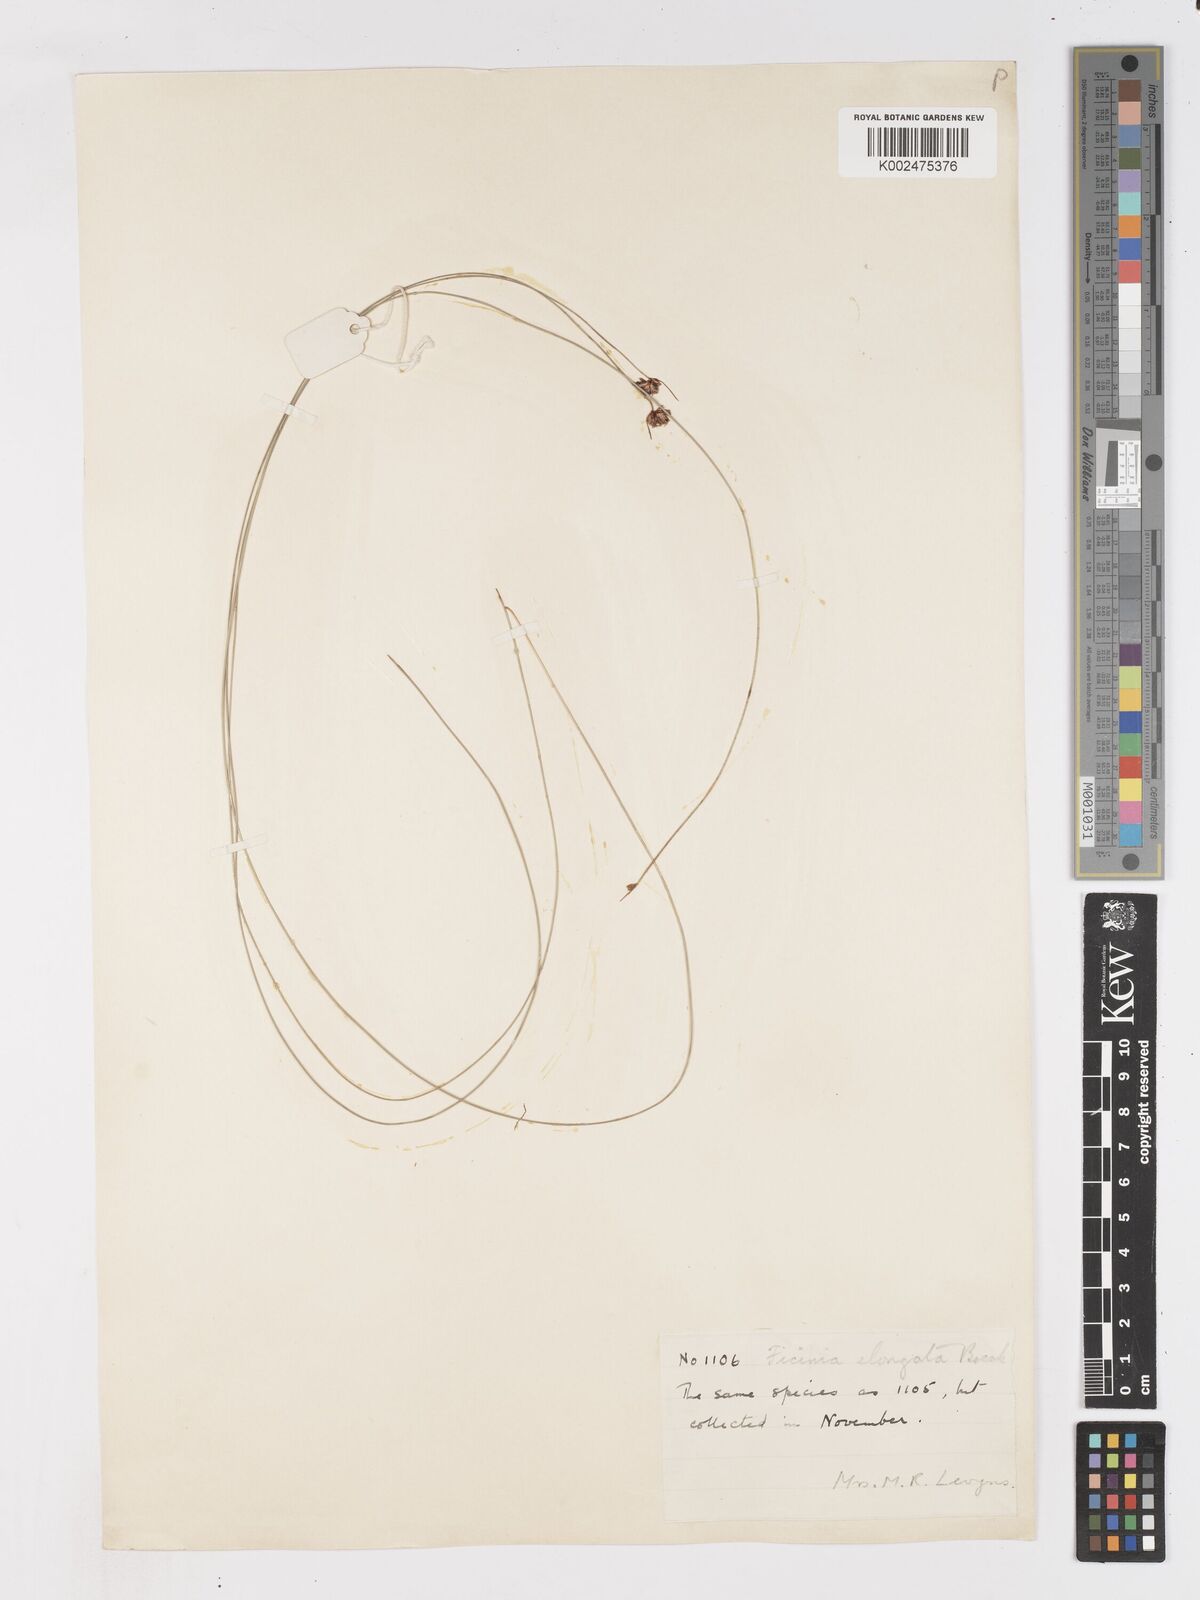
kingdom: Plantae
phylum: Tracheophyta
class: Liliopsida
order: Poales
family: Cyperaceae
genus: Ficinia
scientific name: Ficinia acuminata
